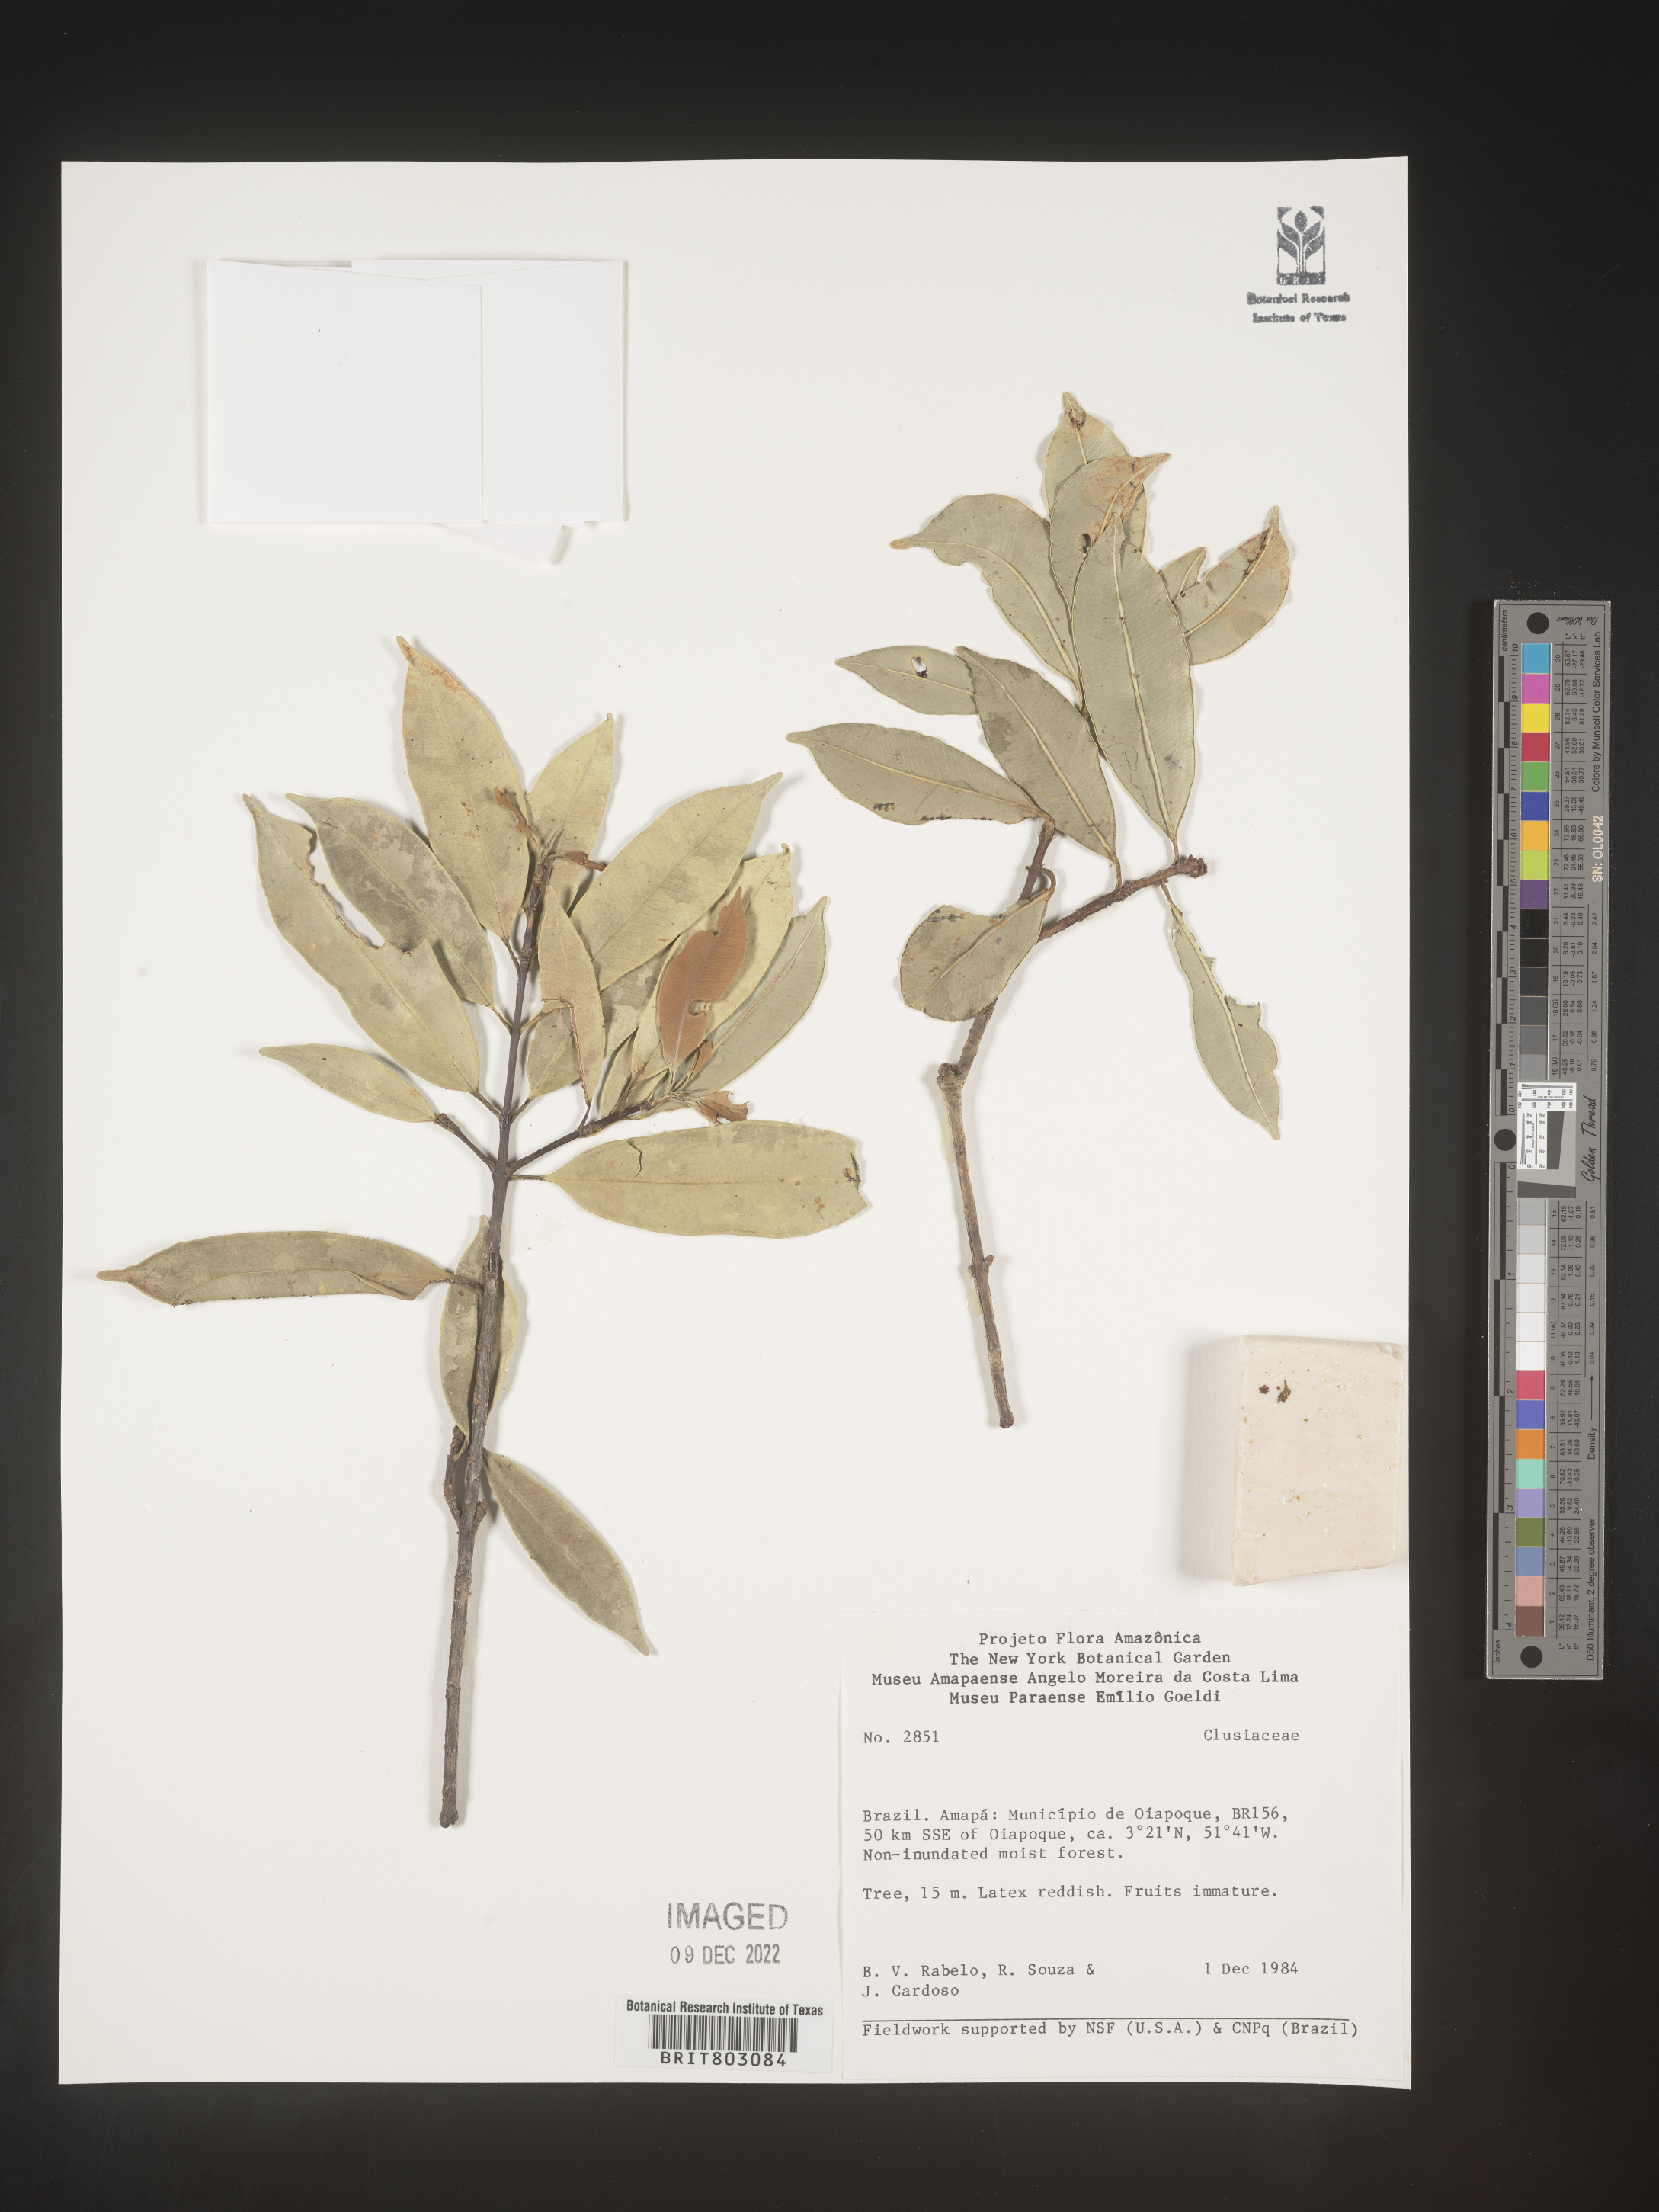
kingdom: Plantae
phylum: Tracheophyta
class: Magnoliopsida
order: Malpighiales
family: Clusiaceae
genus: Symphonia
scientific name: Symphonia
